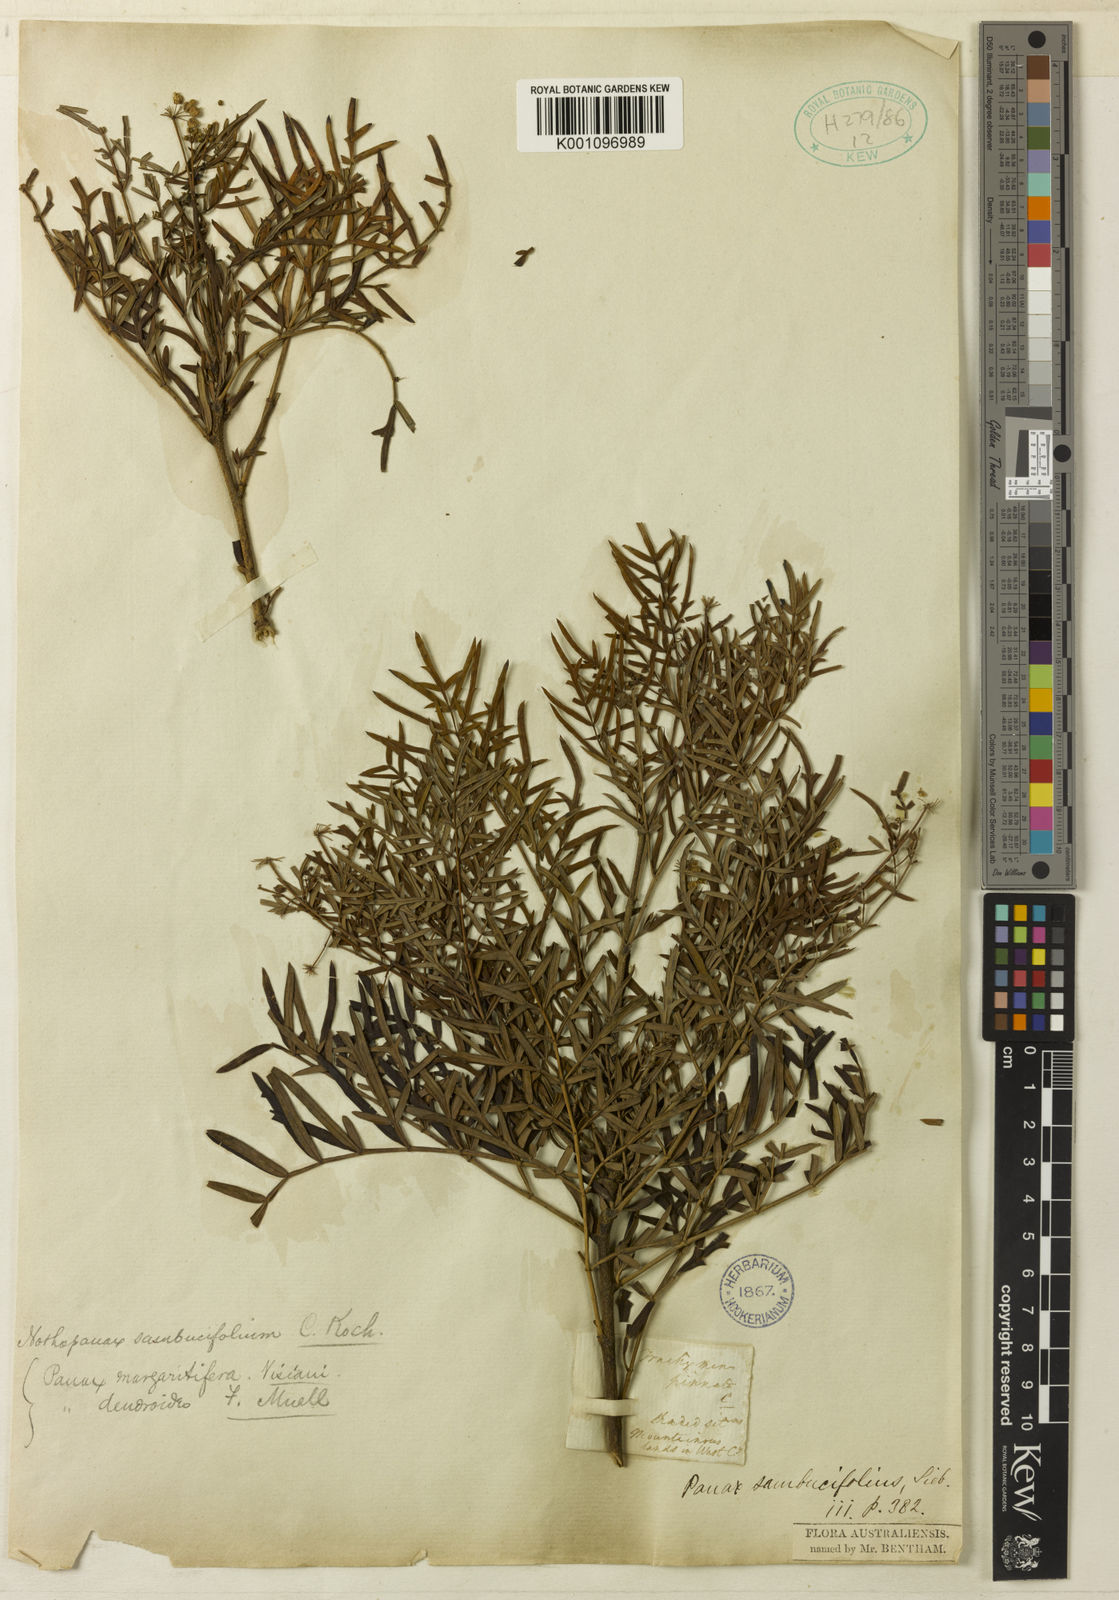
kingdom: Plantae
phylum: Tracheophyta
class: Magnoliopsida
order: Apiales
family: Araliaceae
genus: Polyscias
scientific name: Polyscias sambucifolia
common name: Elderberry-ash
